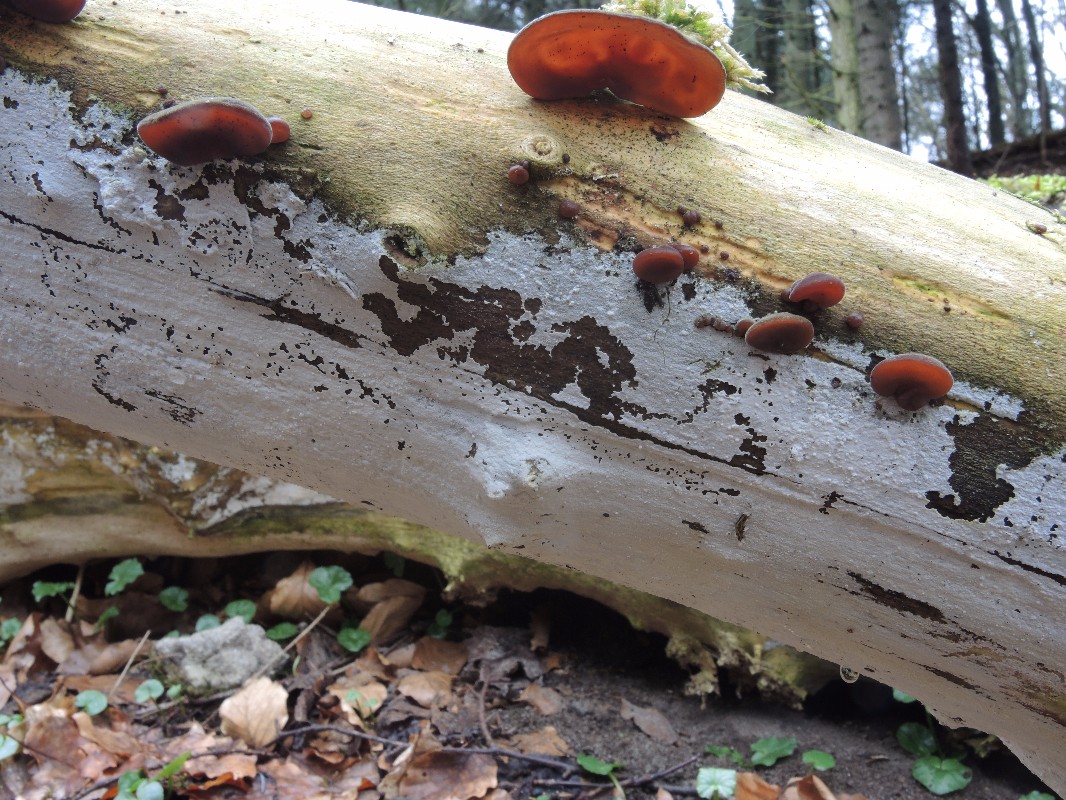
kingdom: Fungi
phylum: Basidiomycota
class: Agaricomycetes
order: Corticiales
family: Corticiaceae
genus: Lyomyces
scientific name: Lyomyces sambuci
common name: almindelig hyldehinde
